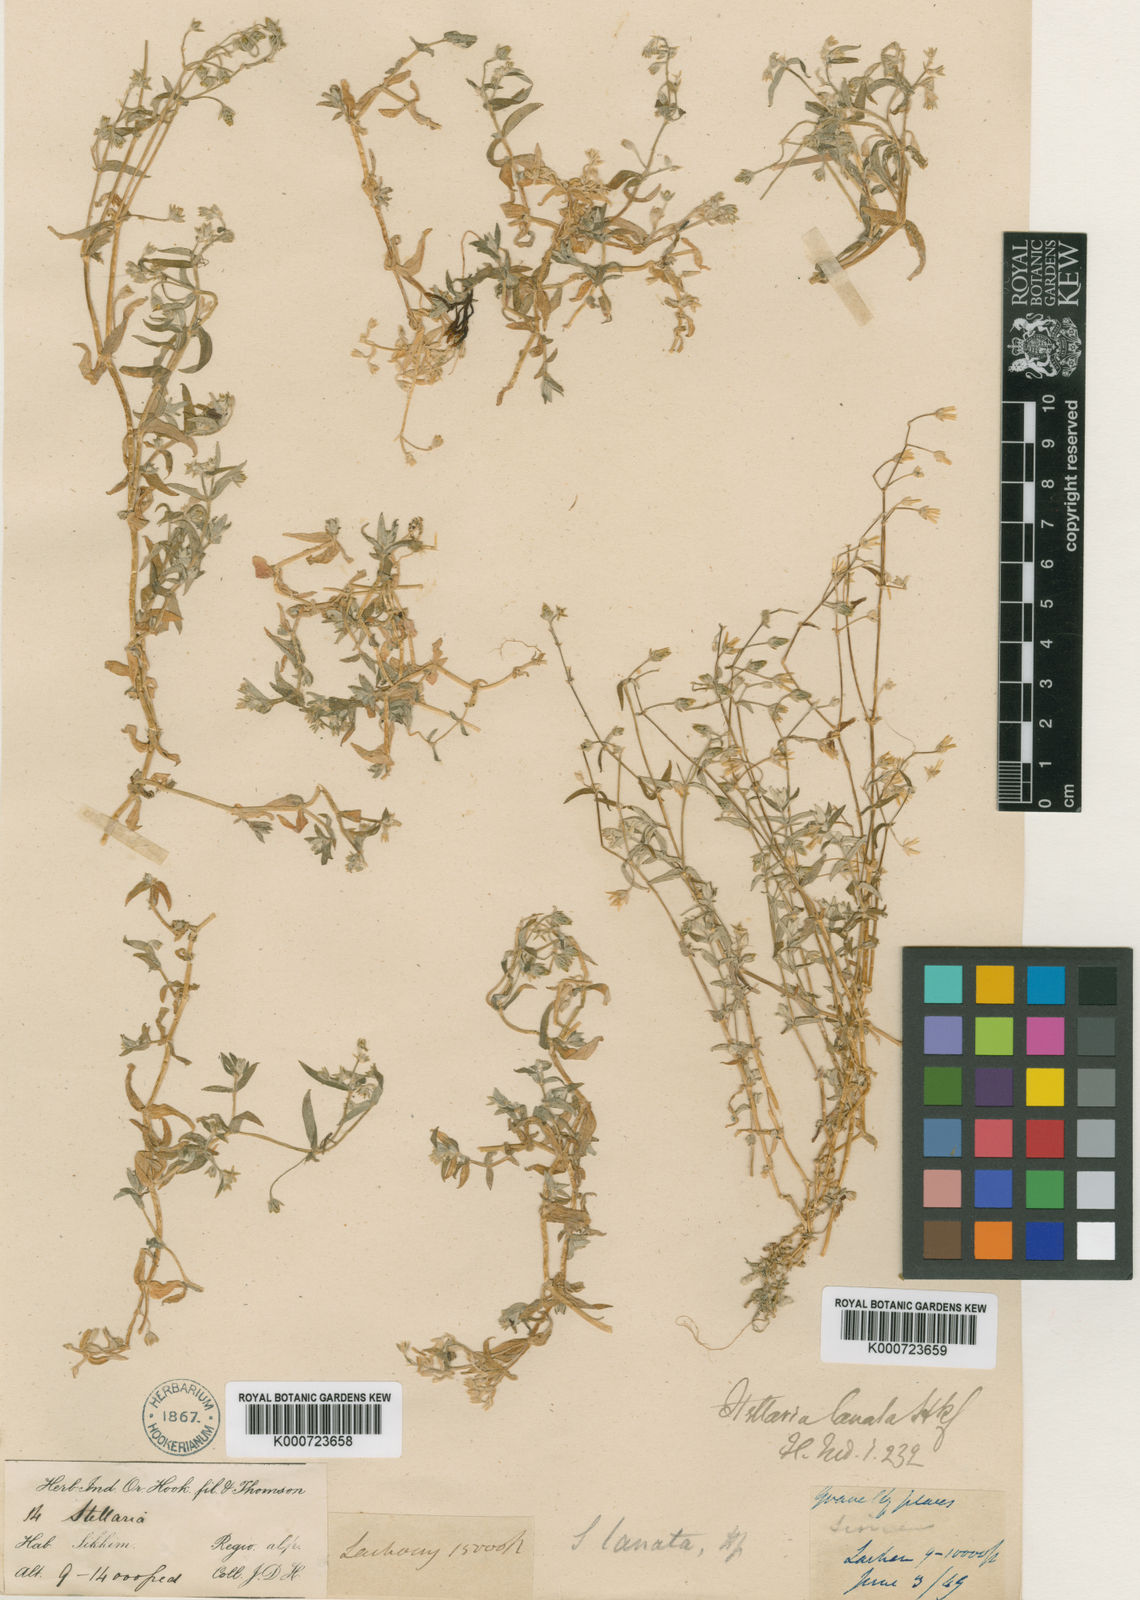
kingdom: Plantae
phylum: Tracheophyta
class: Magnoliopsida
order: Caryophyllales
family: Caryophyllaceae
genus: Stellaria
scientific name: Stellaria lanata
